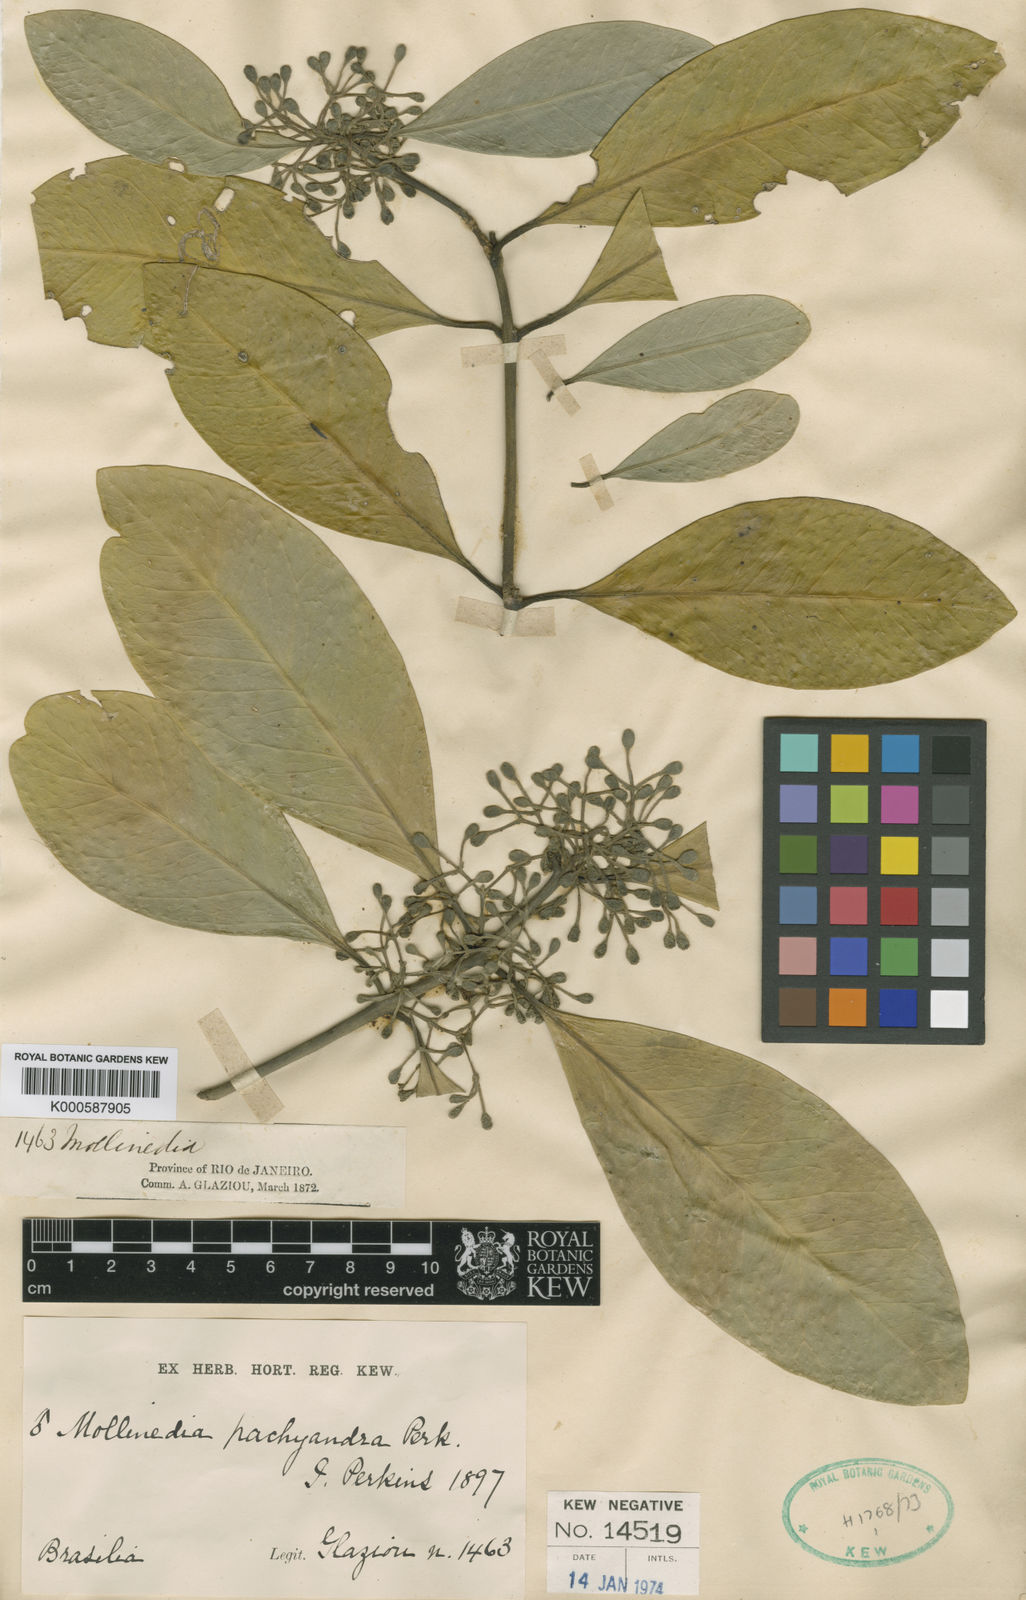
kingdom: Plantae
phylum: Tracheophyta
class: Magnoliopsida
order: Laurales
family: Monimiaceae
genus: Mollinedia
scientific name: Mollinedia pachysandra
